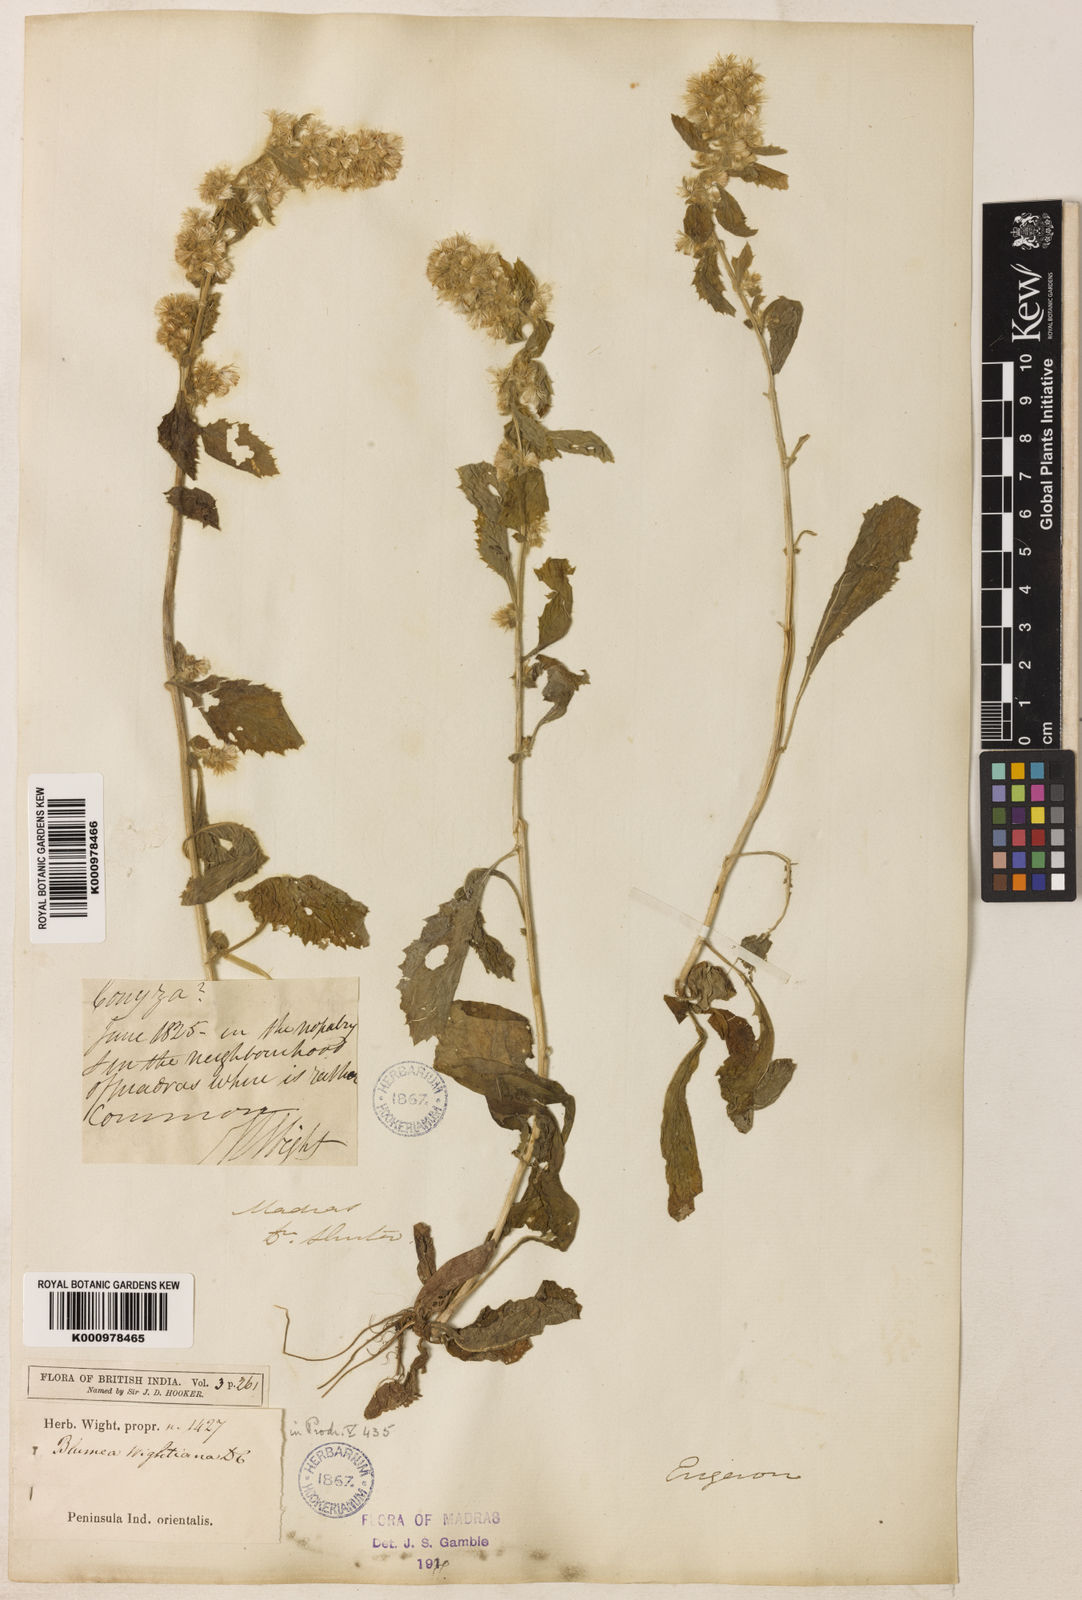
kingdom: Plantae
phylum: Tracheophyta
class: Magnoliopsida
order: Asterales
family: Asteraceae
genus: Blumea
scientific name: Blumea axillaris
